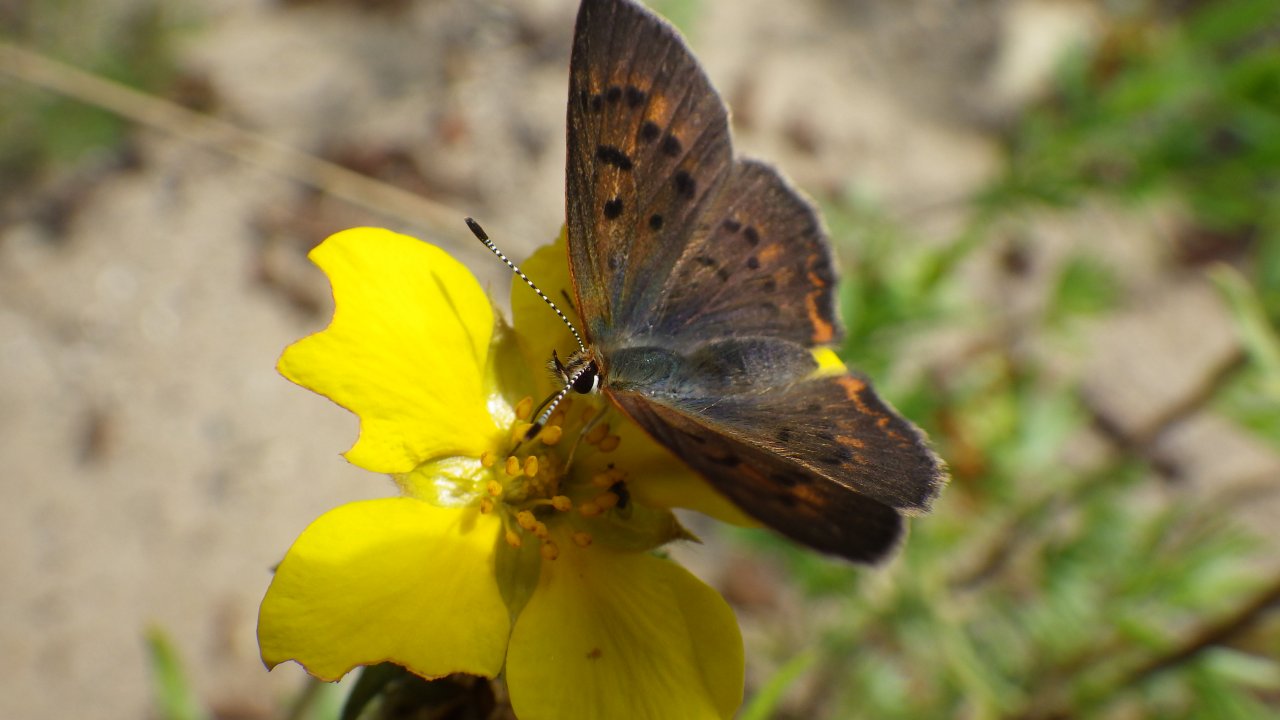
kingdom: Animalia
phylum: Arthropoda
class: Insecta
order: Lepidoptera
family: Lycaenidae
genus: Epidemia
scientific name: Epidemia dorcas
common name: Dorcas Copper
